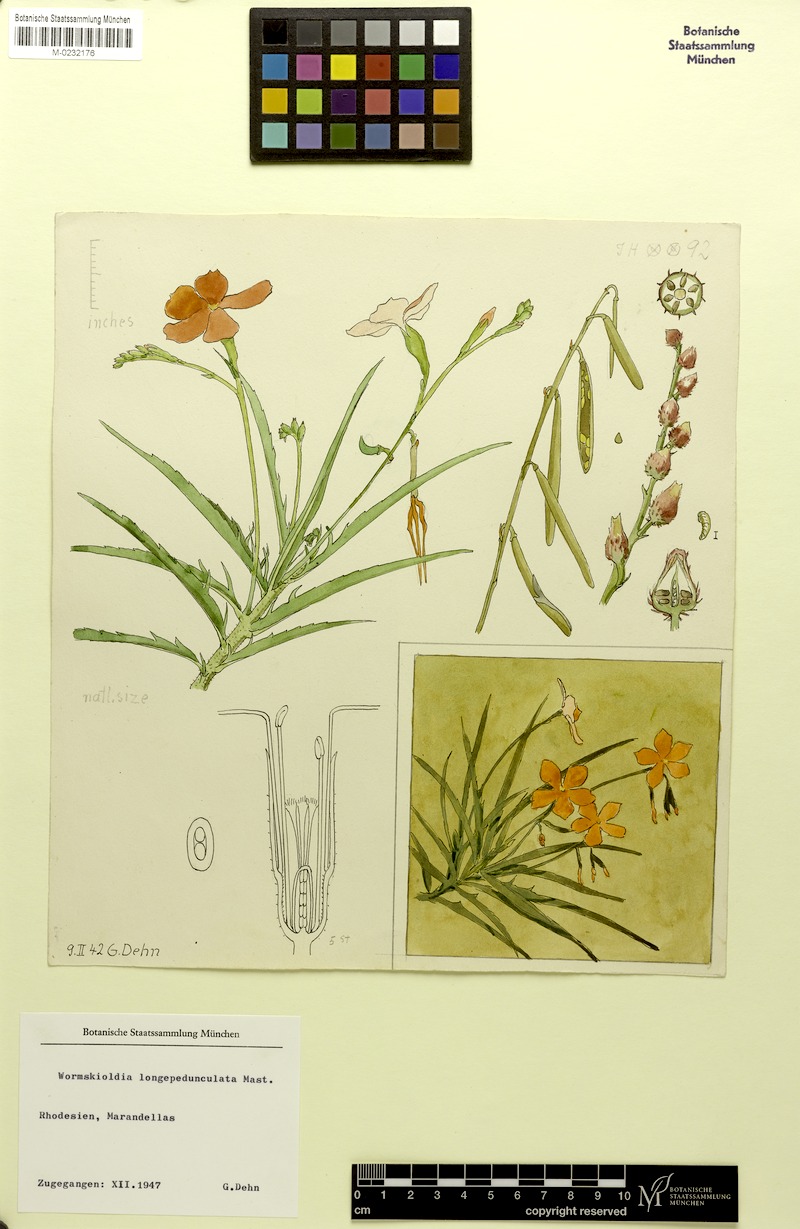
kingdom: Plantae
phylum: Tracheophyta
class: Magnoliopsida
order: Malpighiales
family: Turneraceae
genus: Tricliceras
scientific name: Tricliceras longipedunculatum
